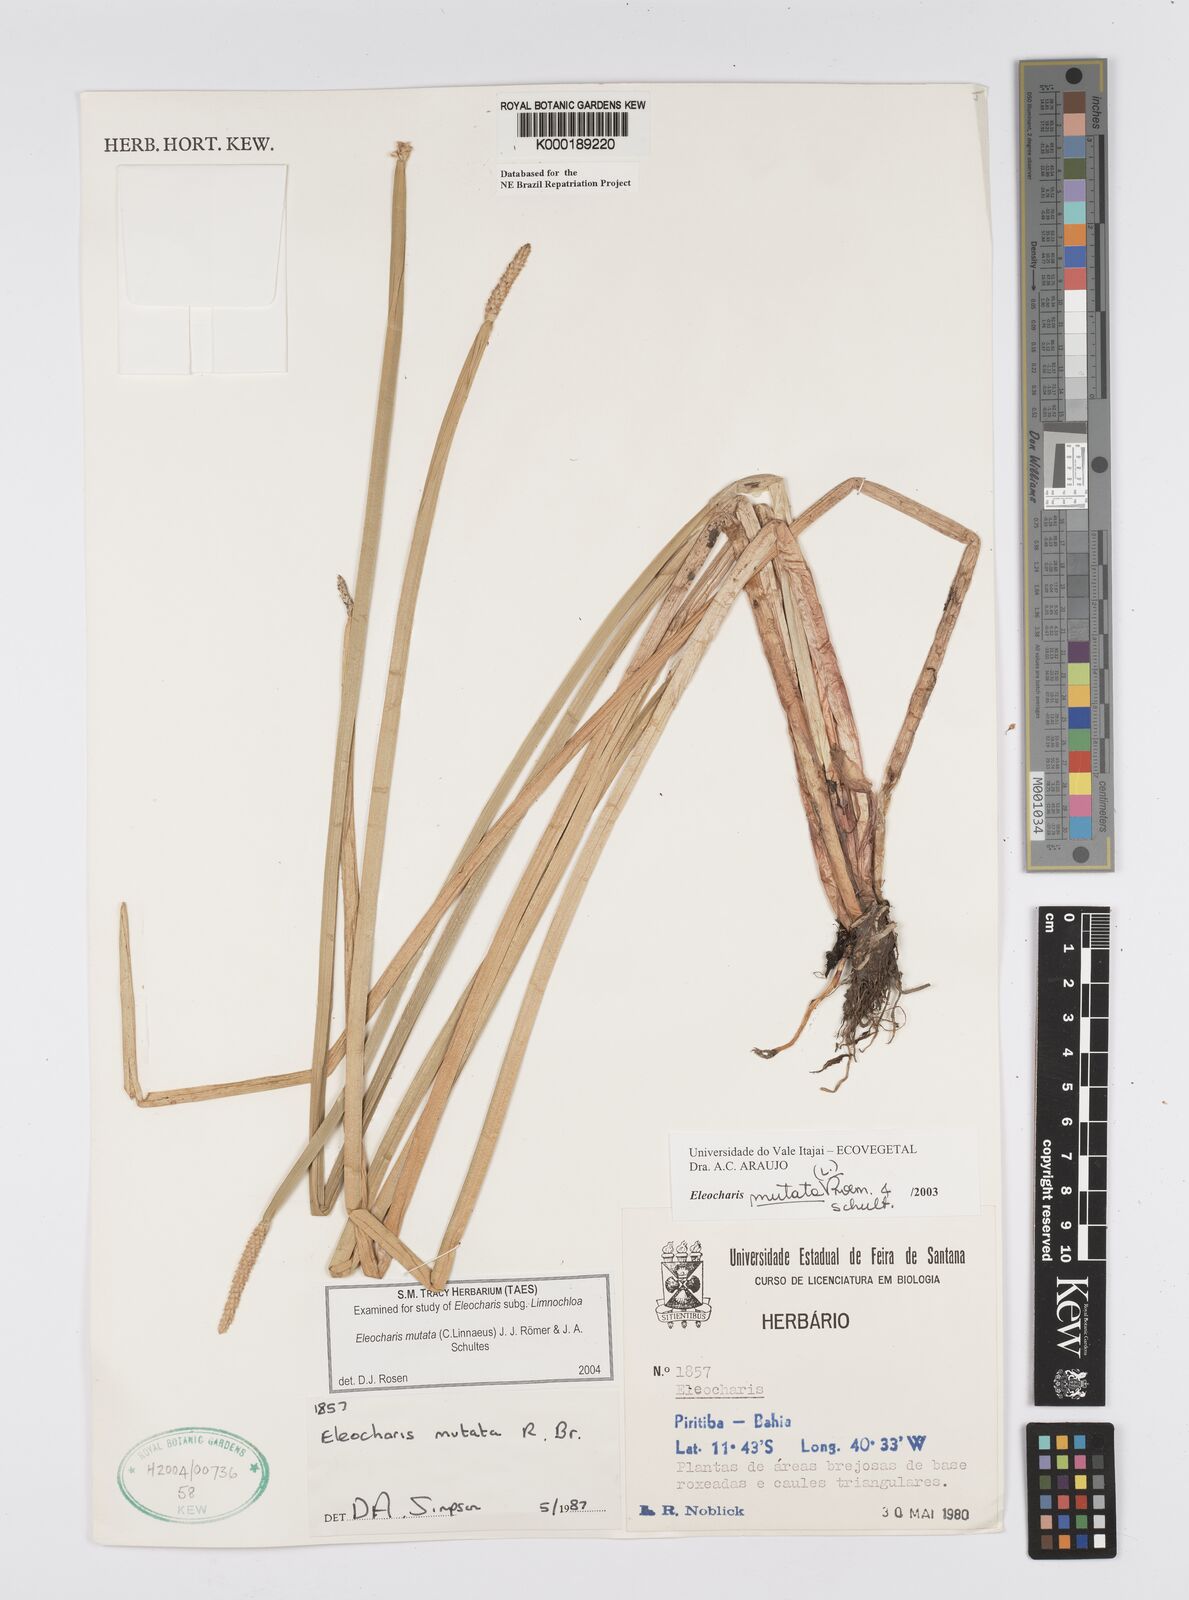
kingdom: Plantae
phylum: Tracheophyta
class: Liliopsida
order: Poales
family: Cyperaceae
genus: Eleocharis
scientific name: Eleocharis mutata
